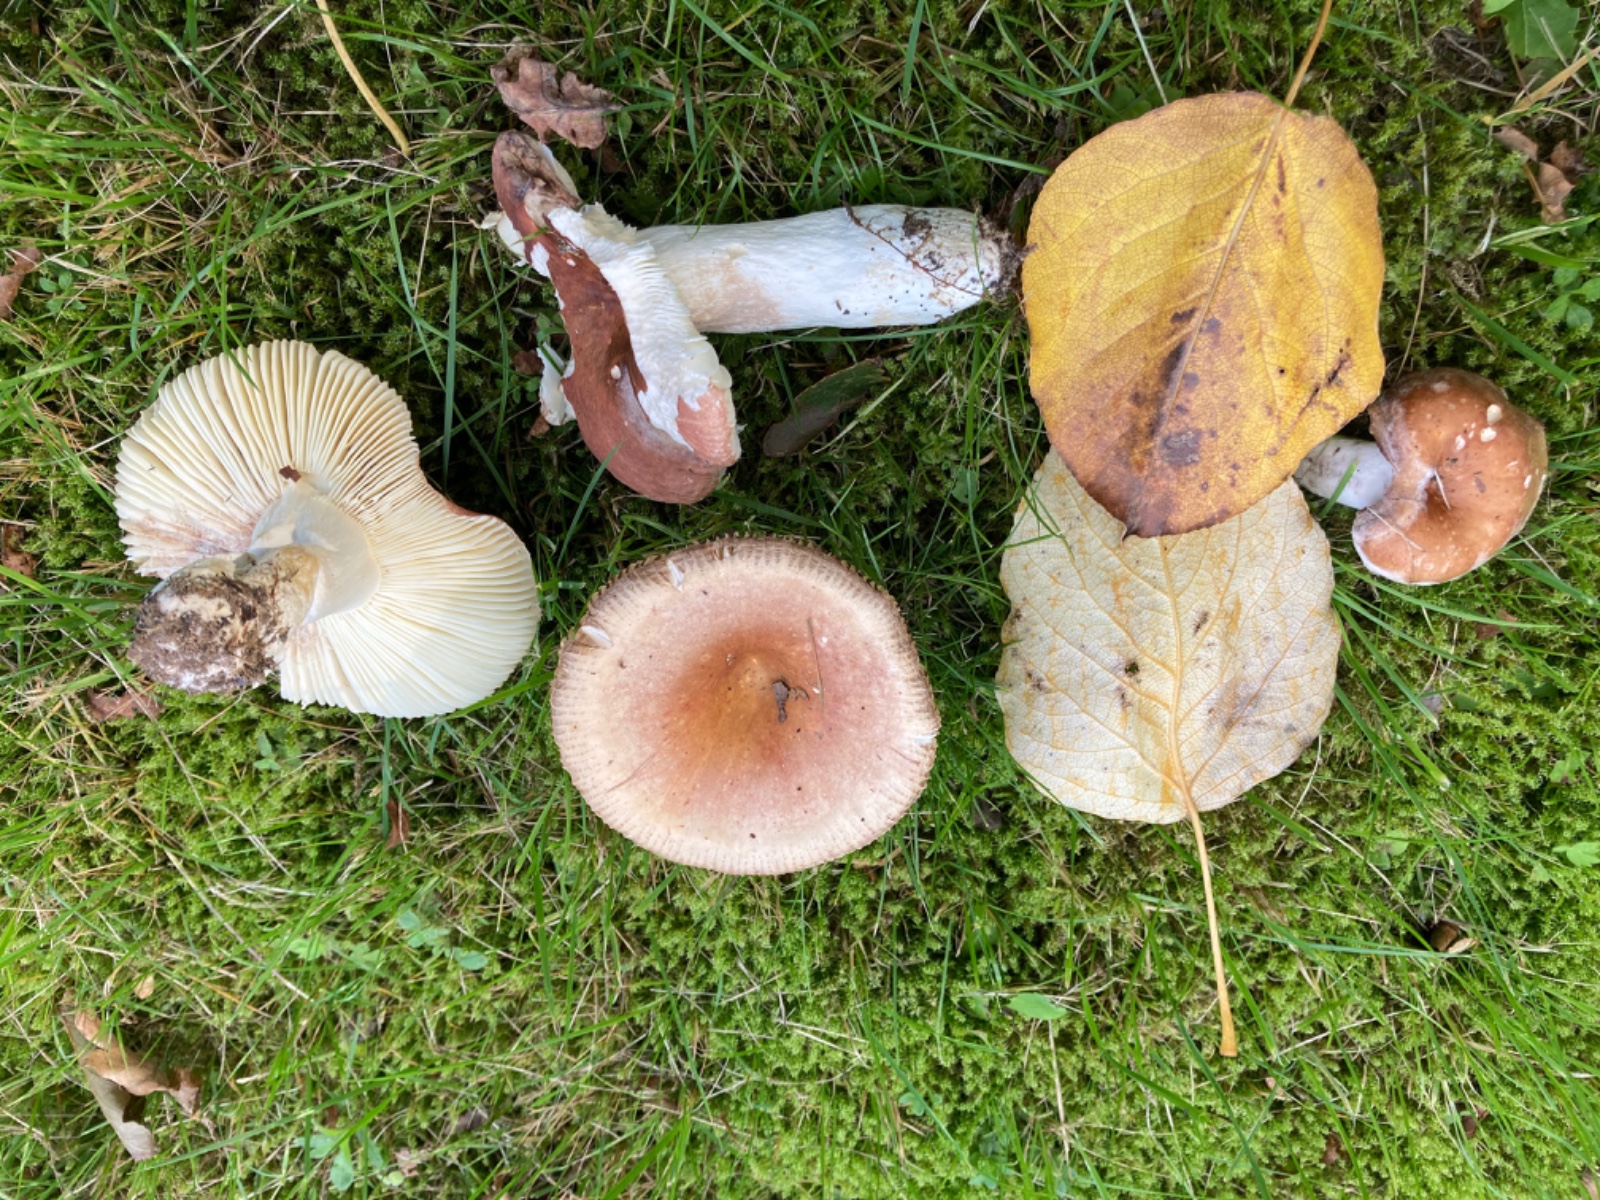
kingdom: Fungi
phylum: Basidiomycota
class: Agaricomycetes
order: Russulales
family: Russulaceae
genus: Russula
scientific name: Russula
